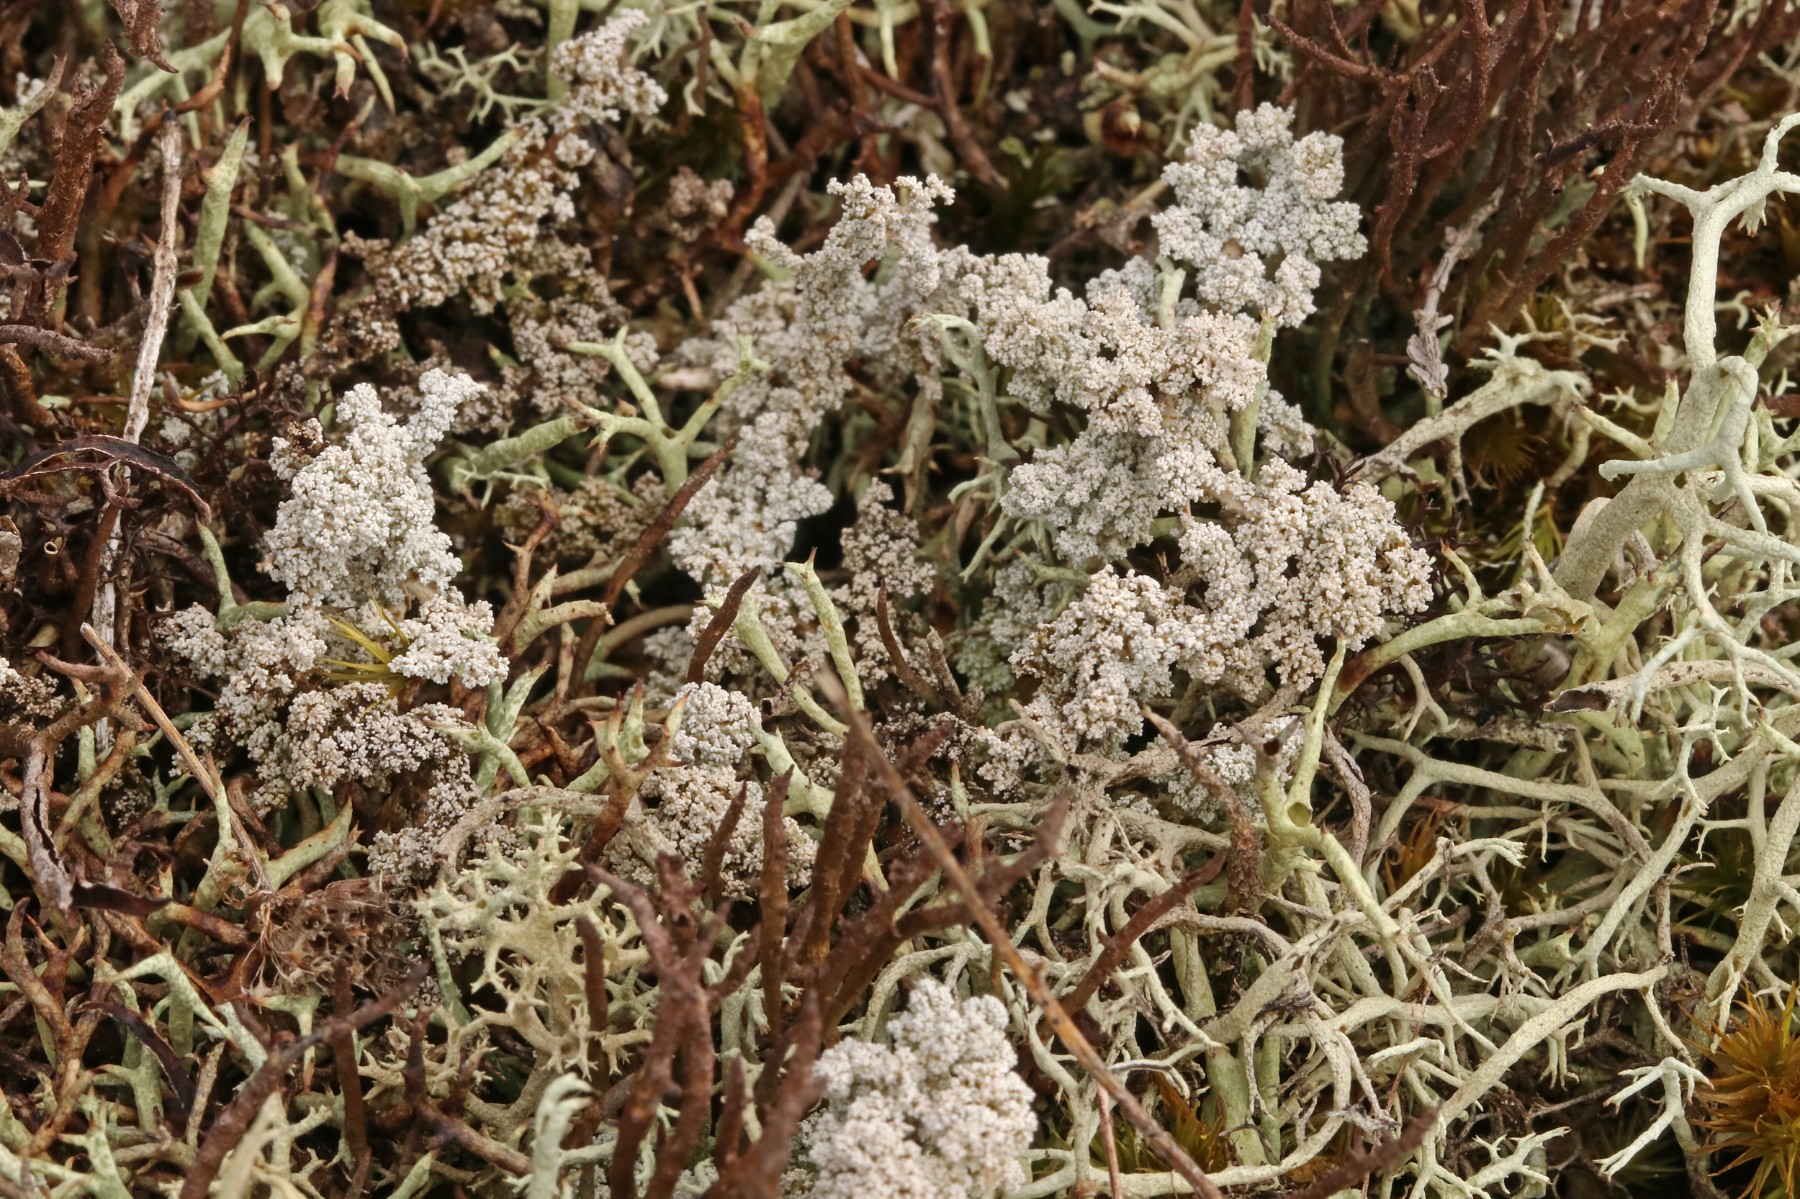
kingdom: Fungi
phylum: Ascomycota
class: Lecanoromycetes
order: Lecanorales
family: Stereocaulaceae
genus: Stereocaulon
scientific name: Stereocaulon saxatile
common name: klit-korallav
